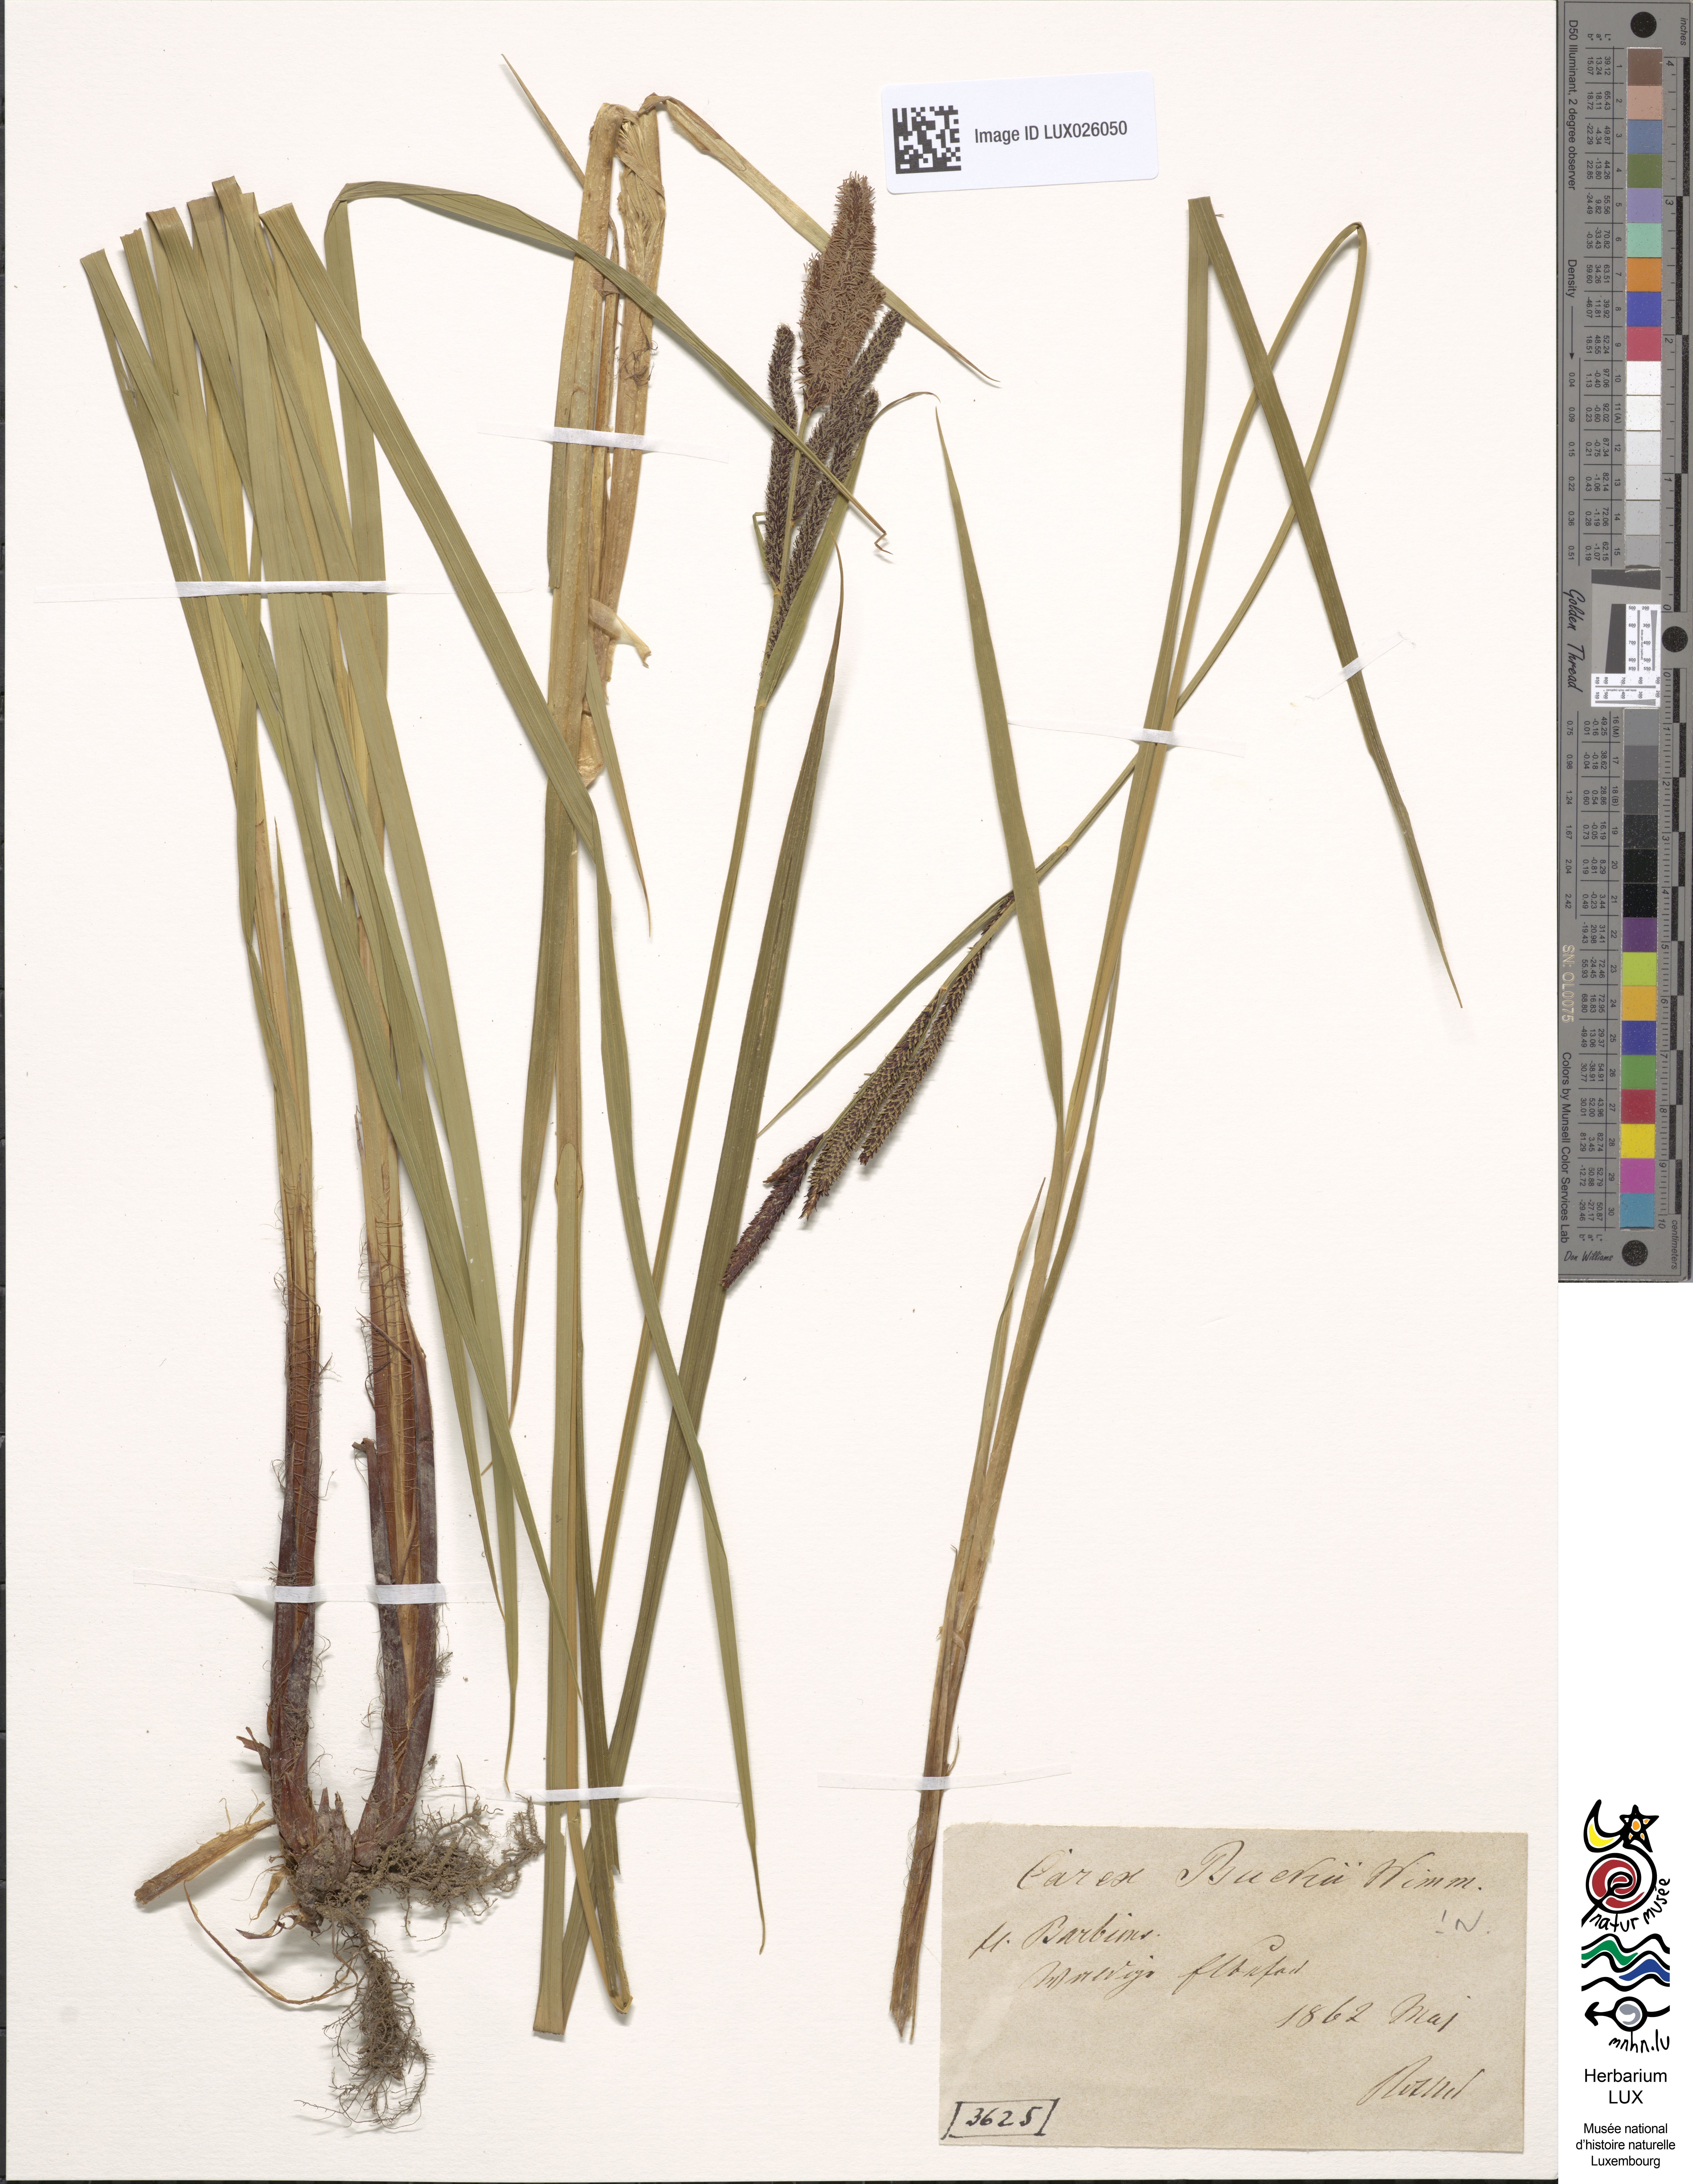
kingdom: Plantae
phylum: Tracheophyta
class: Liliopsida
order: Poales
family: Cyperaceae
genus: Carex
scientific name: Carex buekii
